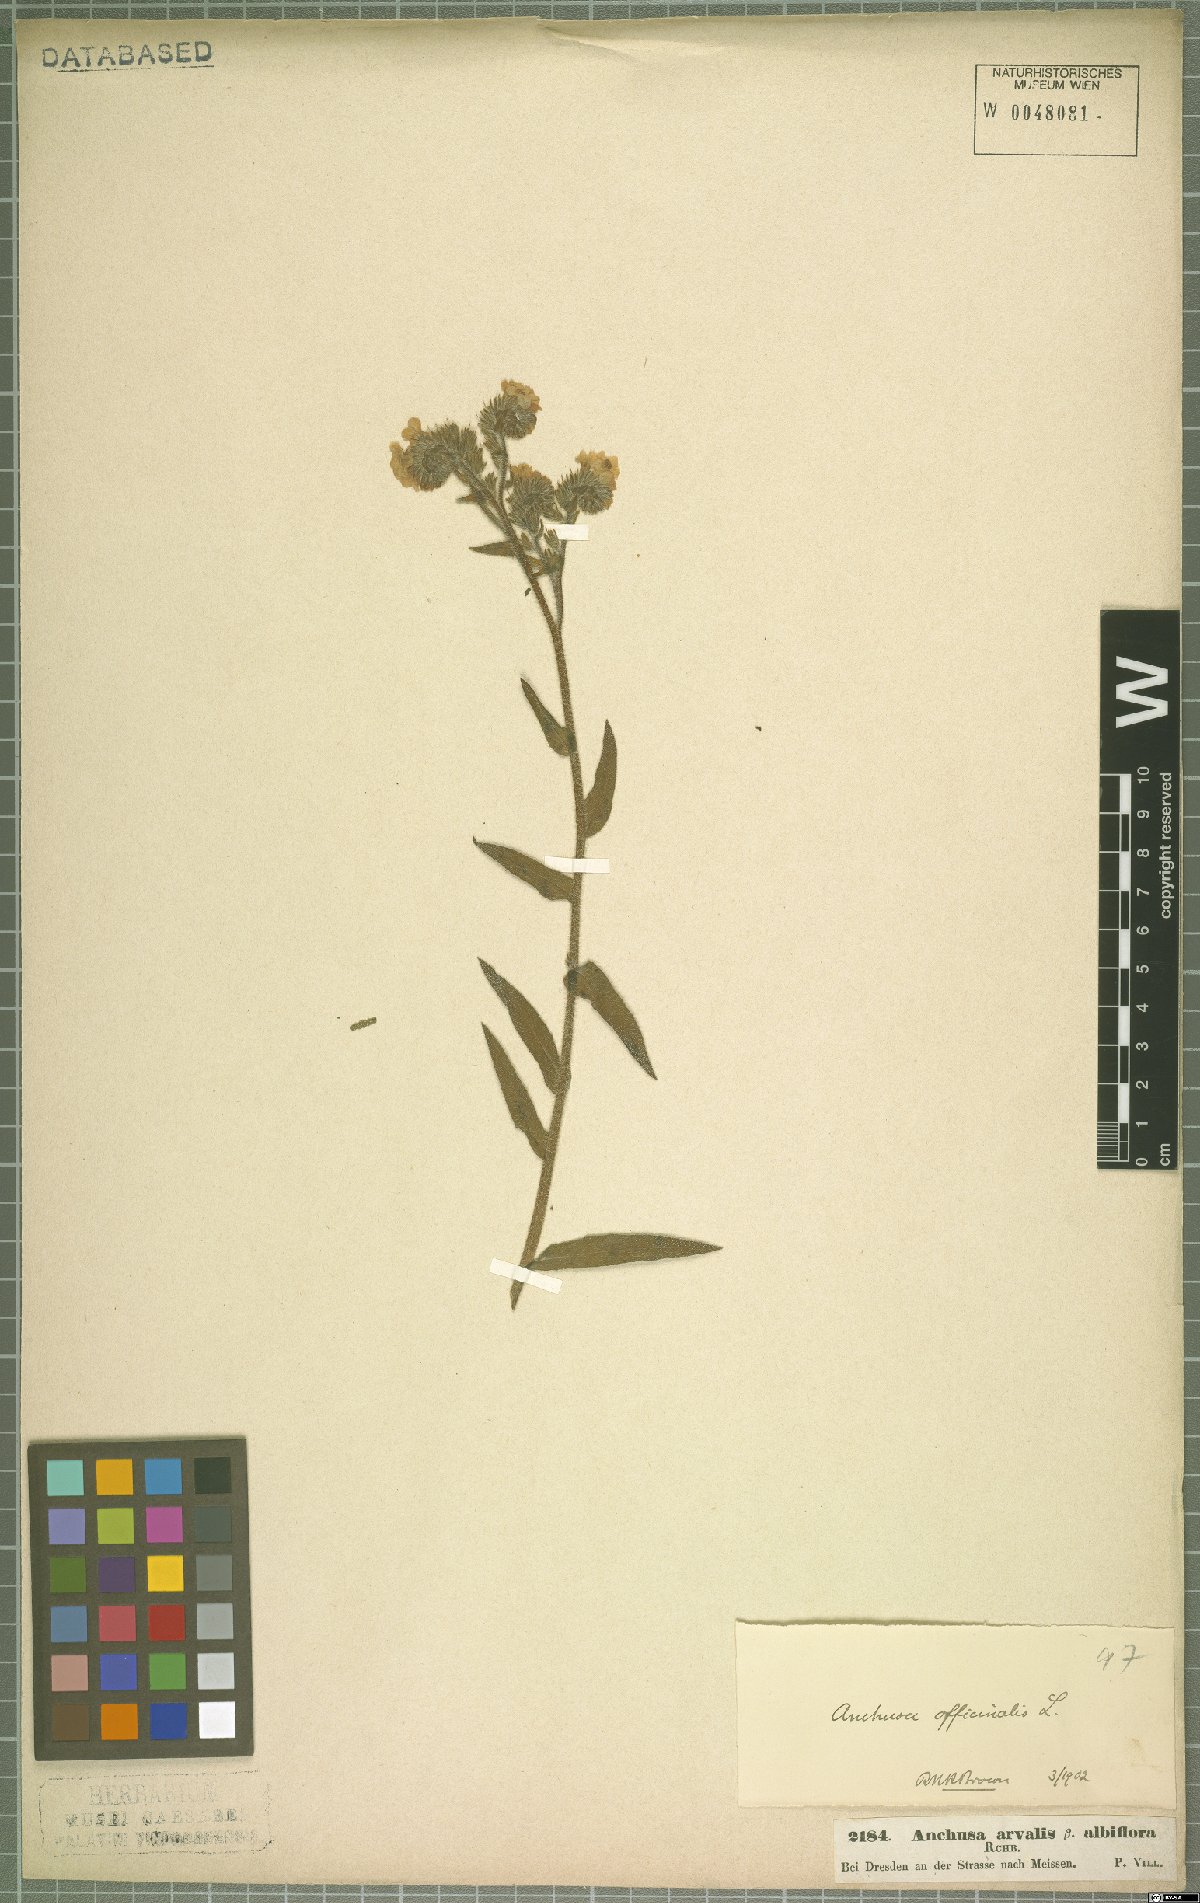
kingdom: Plantae
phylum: Tracheophyta
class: Magnoliopsida
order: Boraginales
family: Boraginaceae
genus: Anchusa
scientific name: Anchusa officinalis
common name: Alkanet
